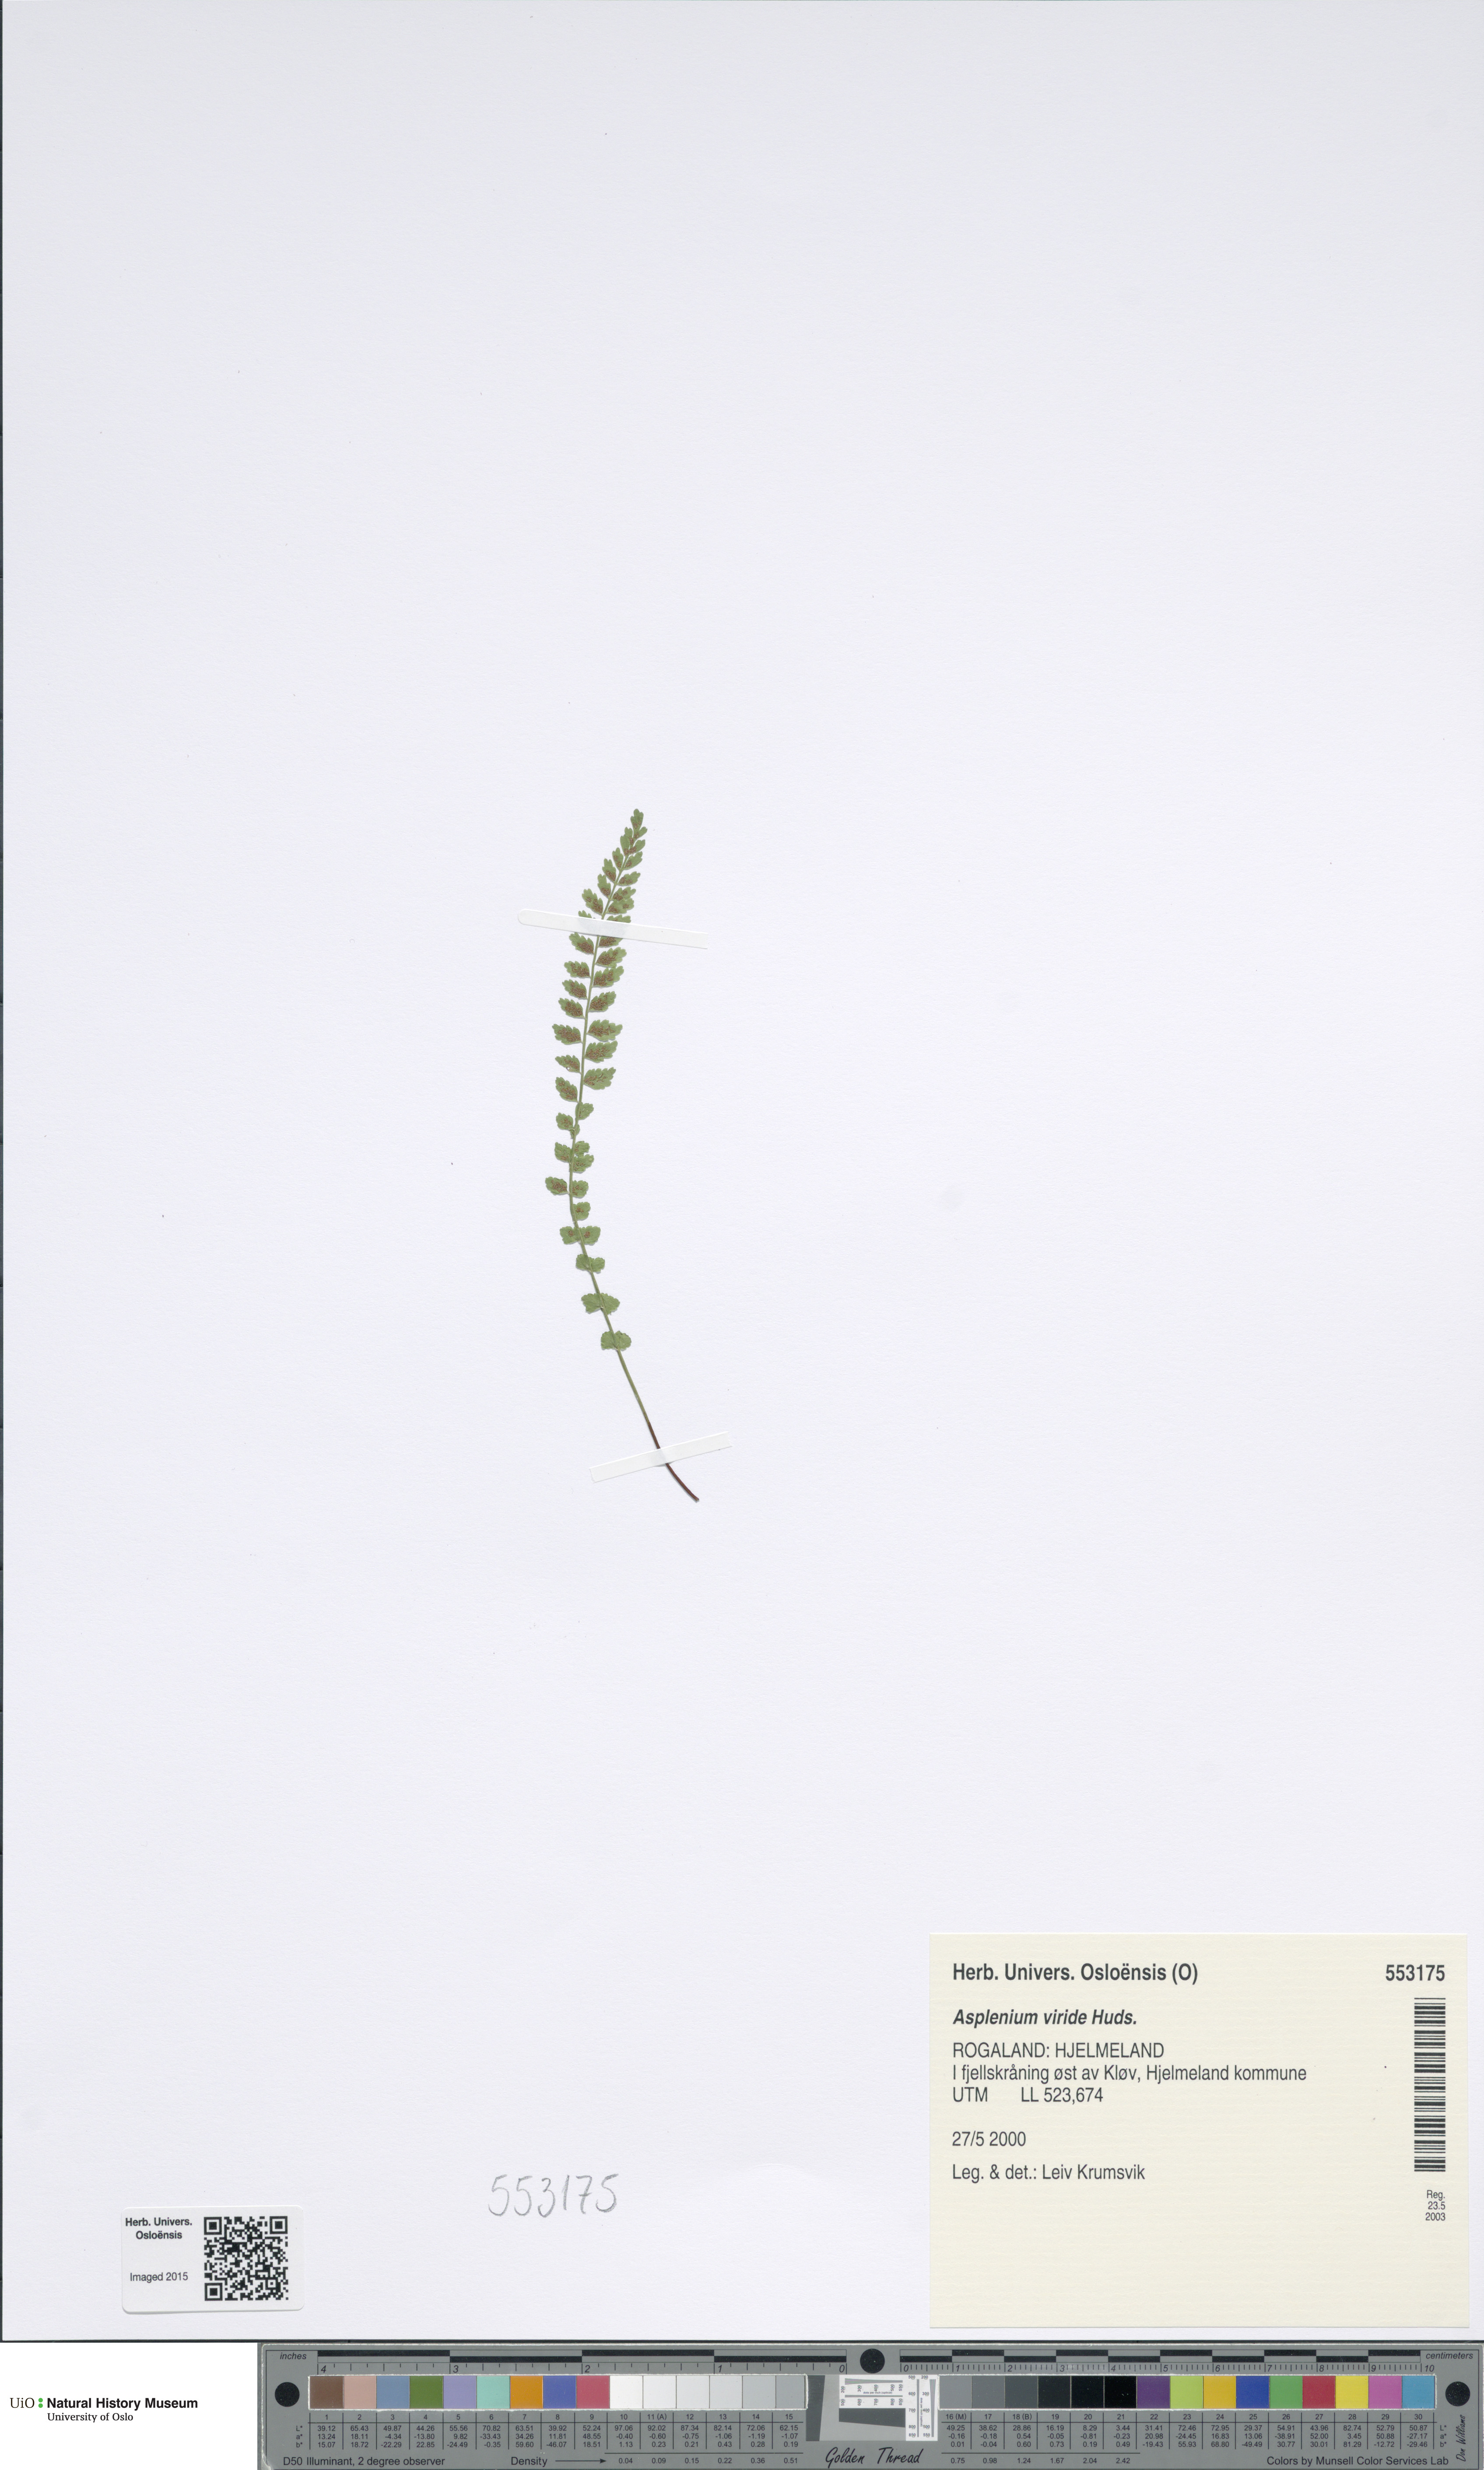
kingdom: Plantae
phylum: Tracheophyta
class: Polypodiopsida
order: Polypodiales
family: Aspleniaceae
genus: Asplenium
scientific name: Asplenium viride
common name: Green spleenwort
